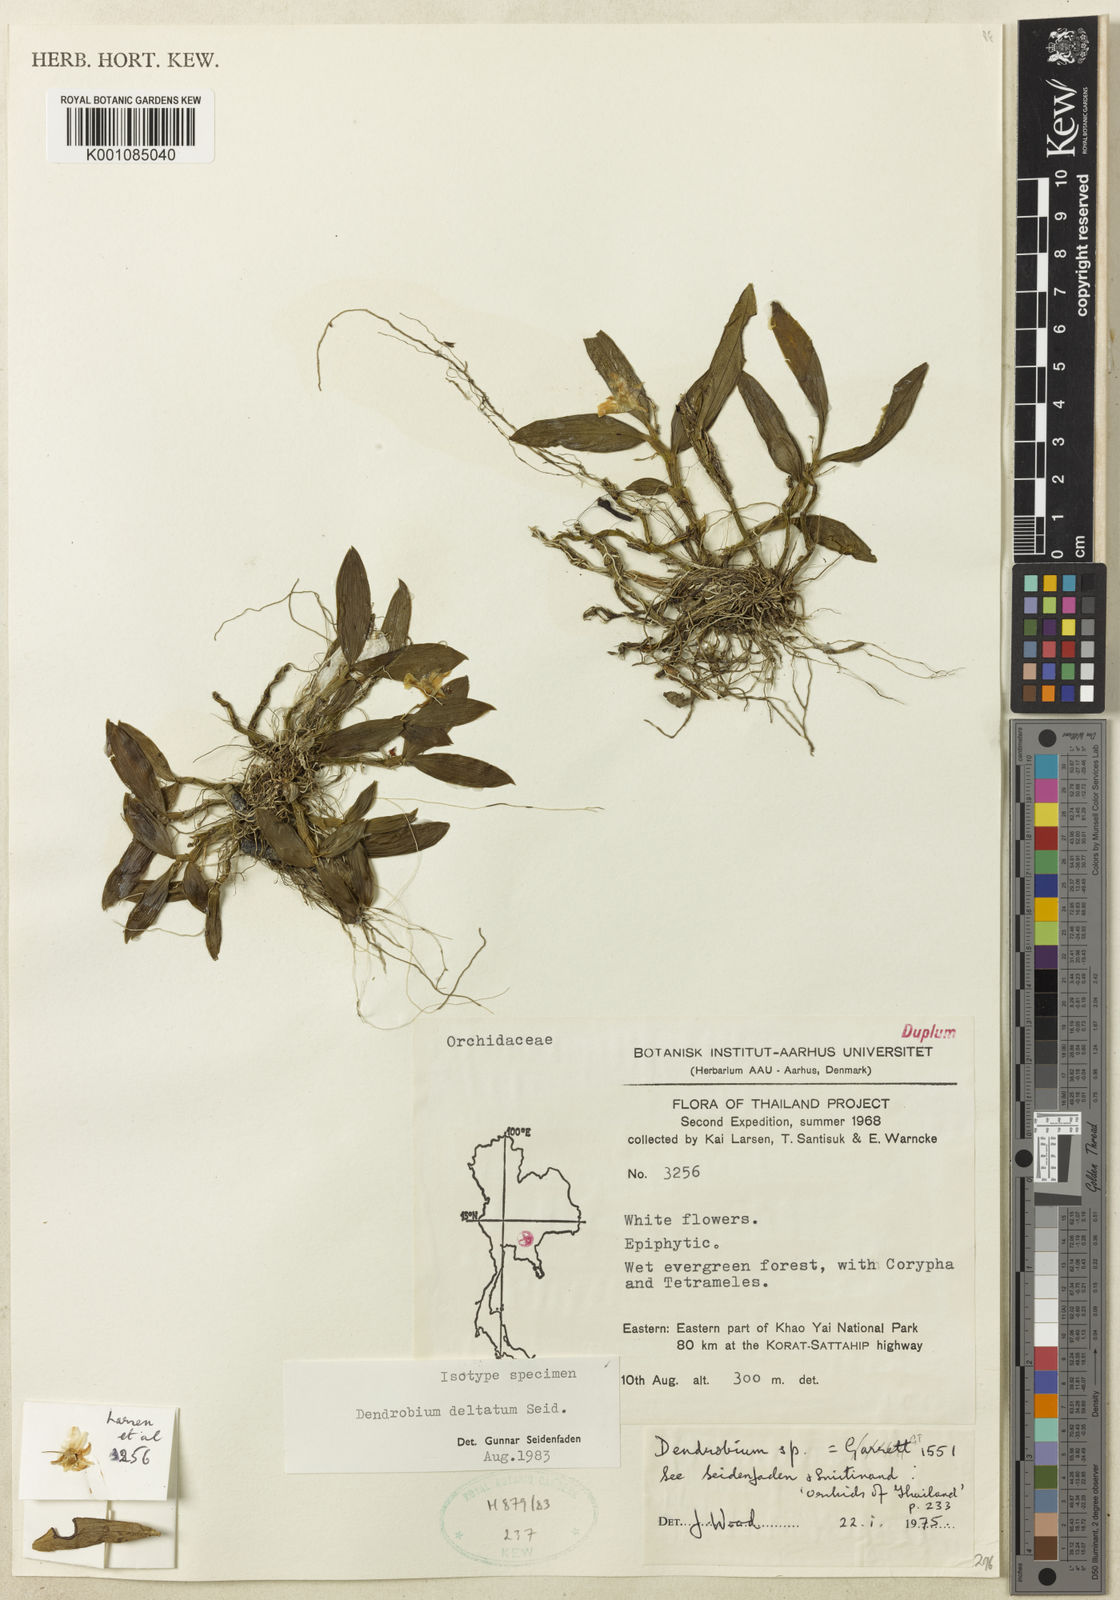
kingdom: Plantae
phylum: Tracheophyta
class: Liliopsida
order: Asparagales
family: Orchidaceae
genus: Dendrobium
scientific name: Dendrobium deltatum
